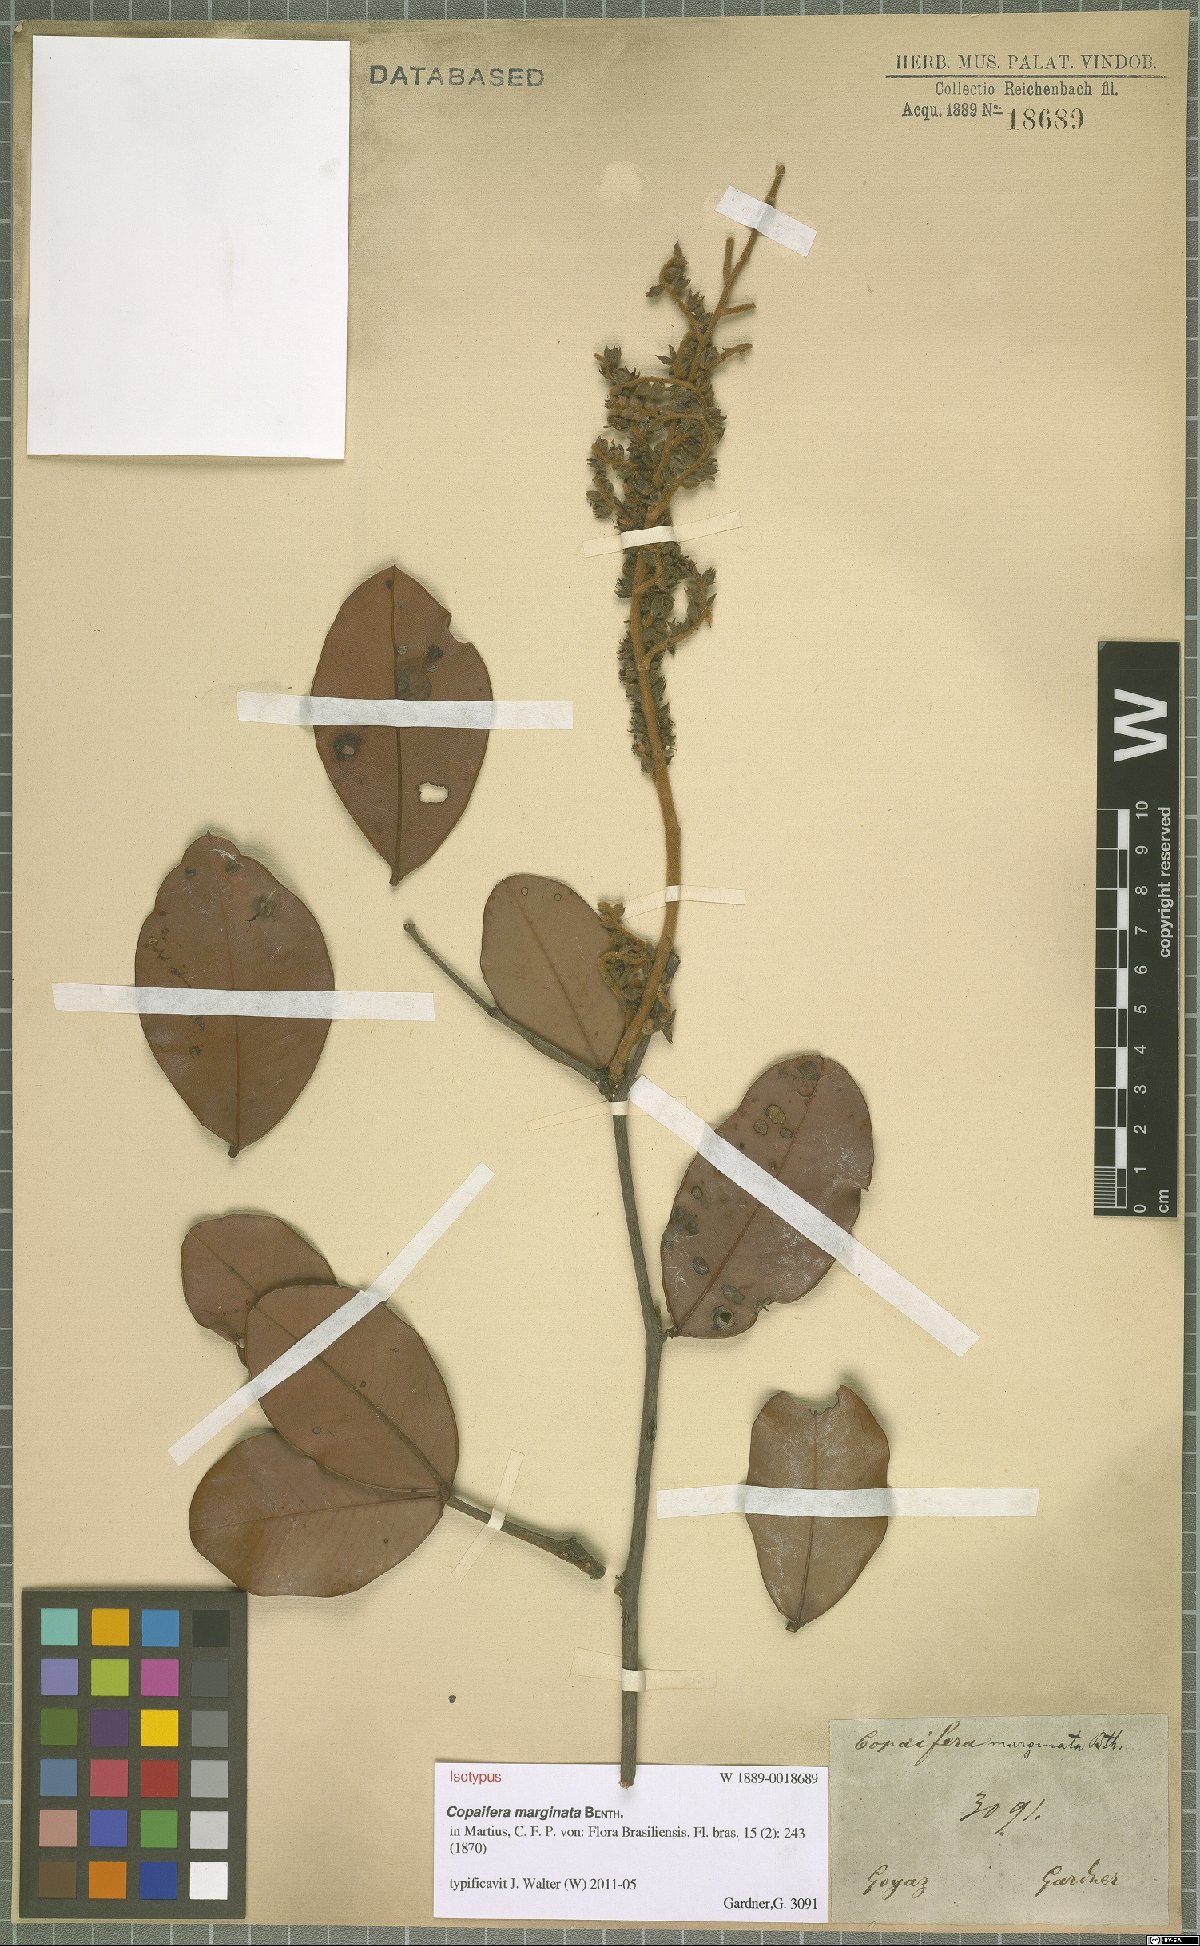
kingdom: Plantae
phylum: Tracheophyta
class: Magnoliopsida
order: Fabales
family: Fabaceae
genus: Copaifera
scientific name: Copaifera marginata
